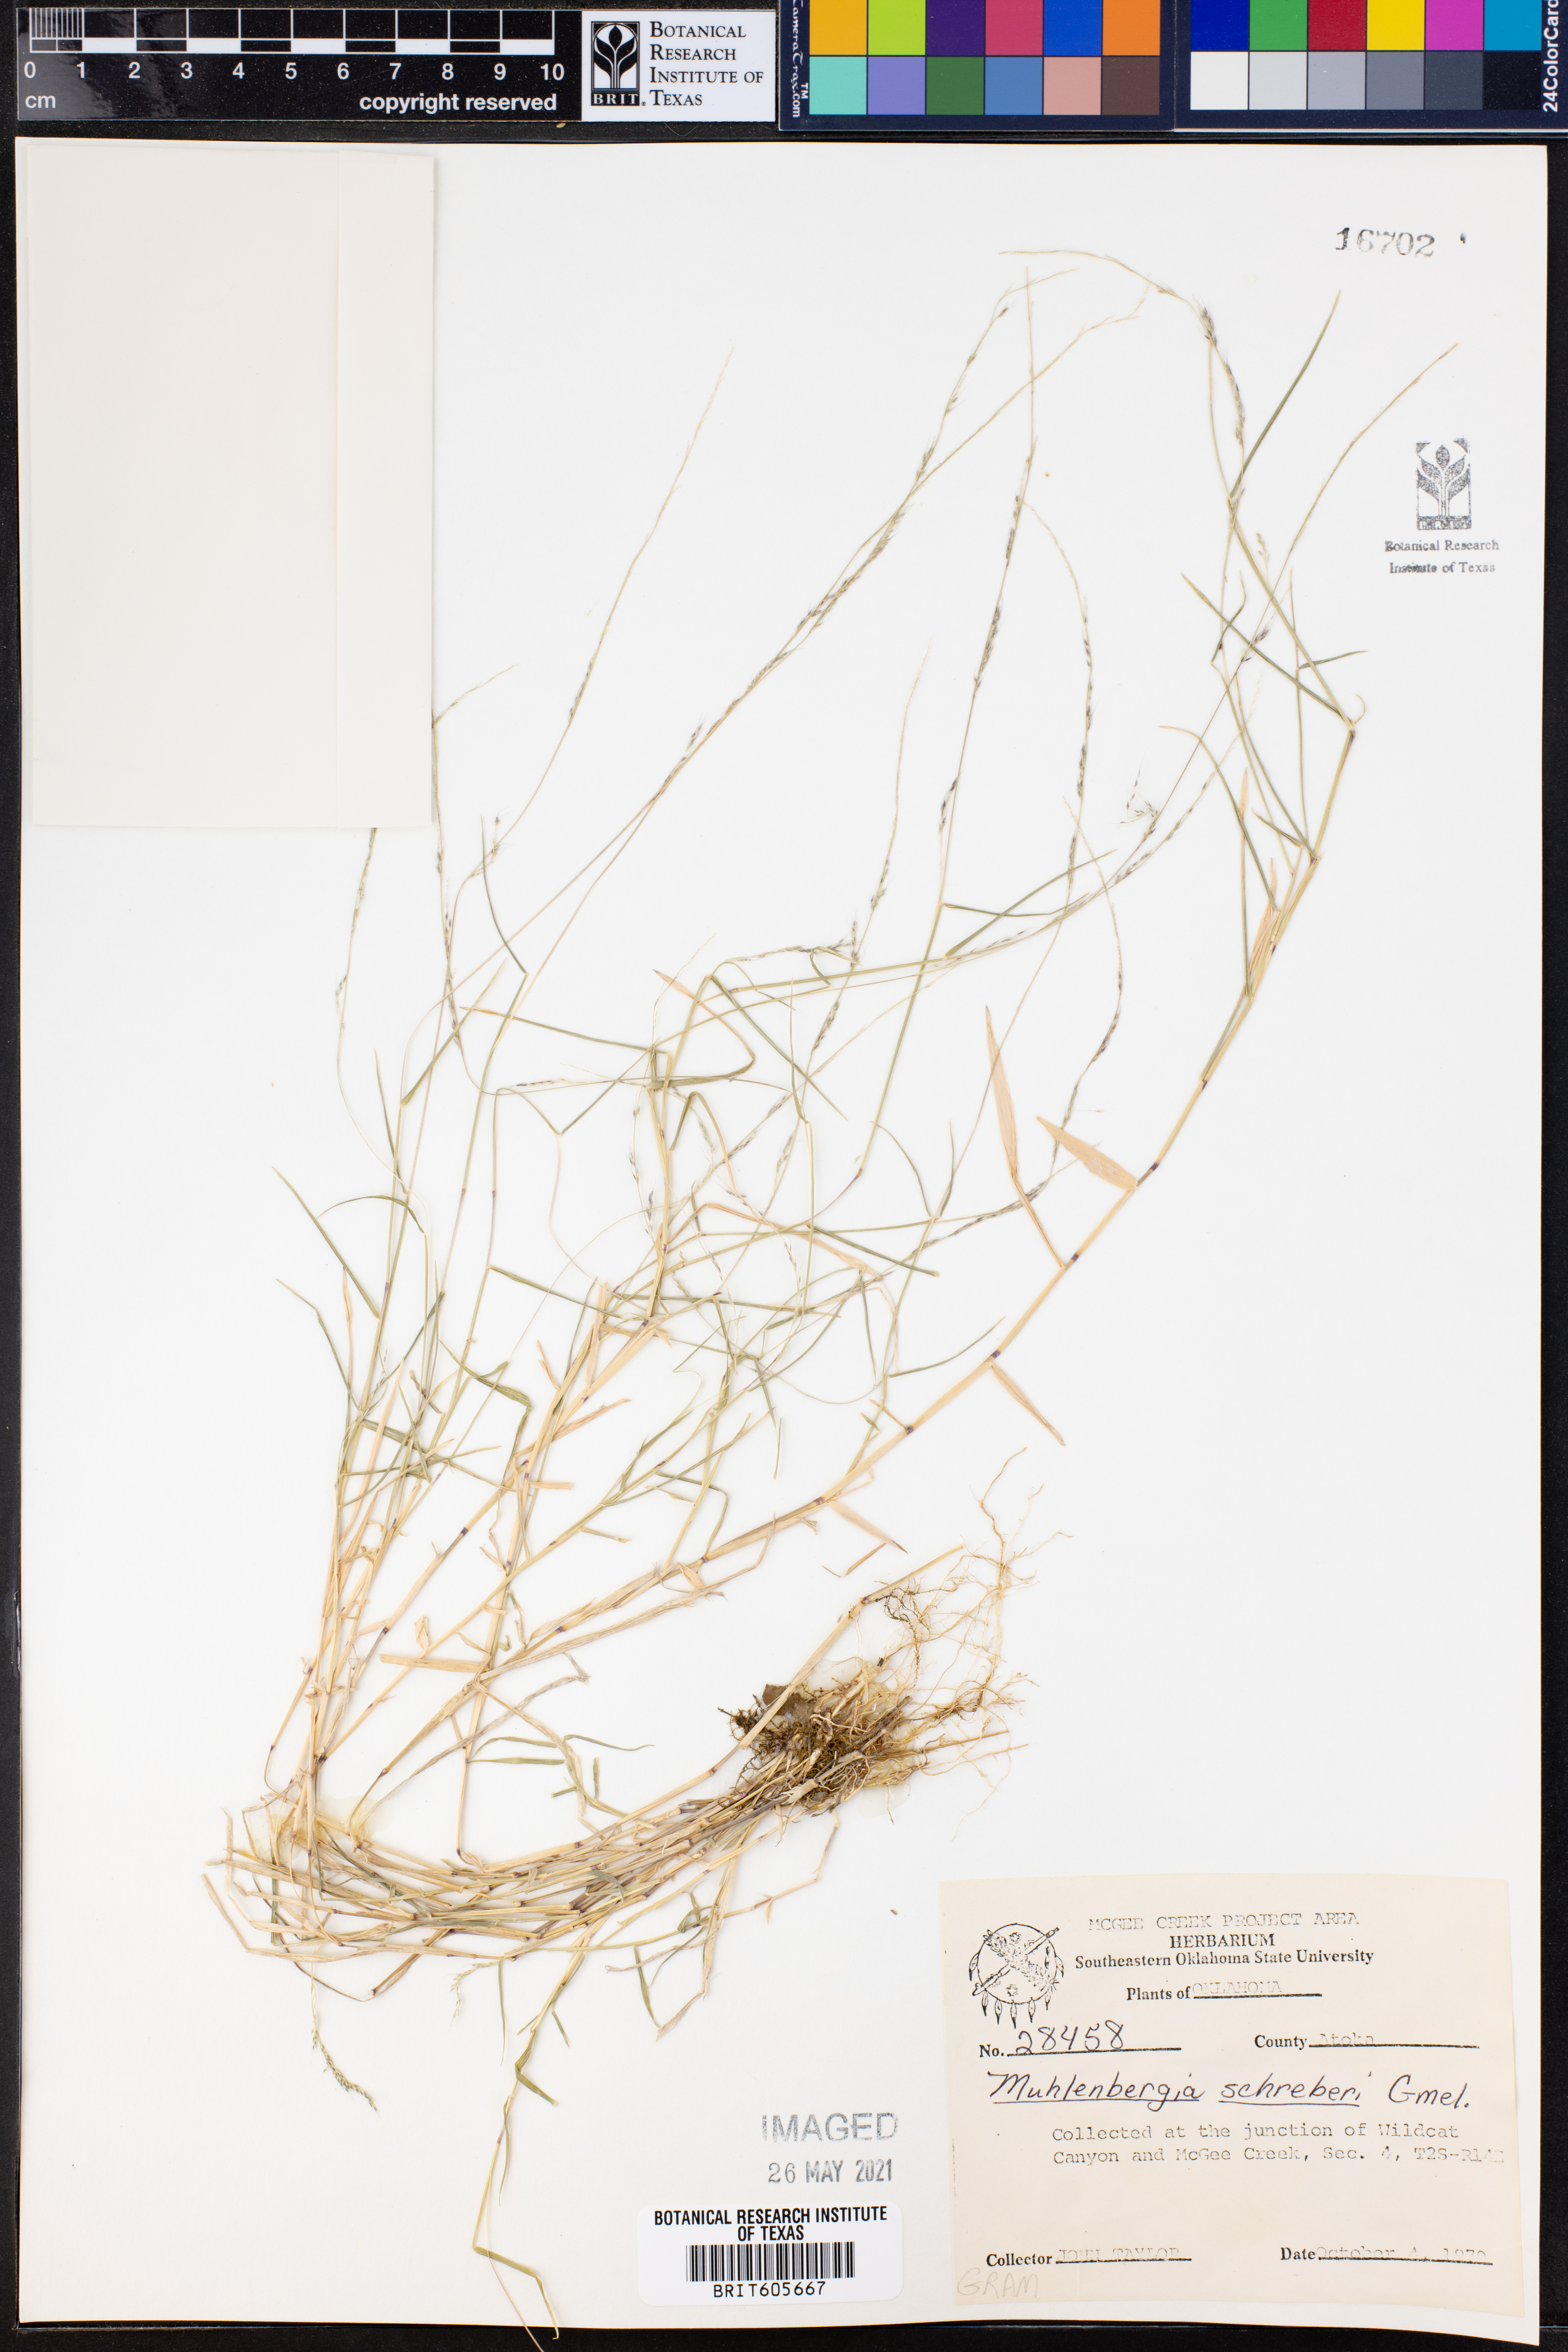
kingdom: Plantae
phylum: Tracheophyta
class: Liliopsida
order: Poales
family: Poaceae
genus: Muhlenbergia
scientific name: Muhlenbergia schreberi
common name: Nimblewill
